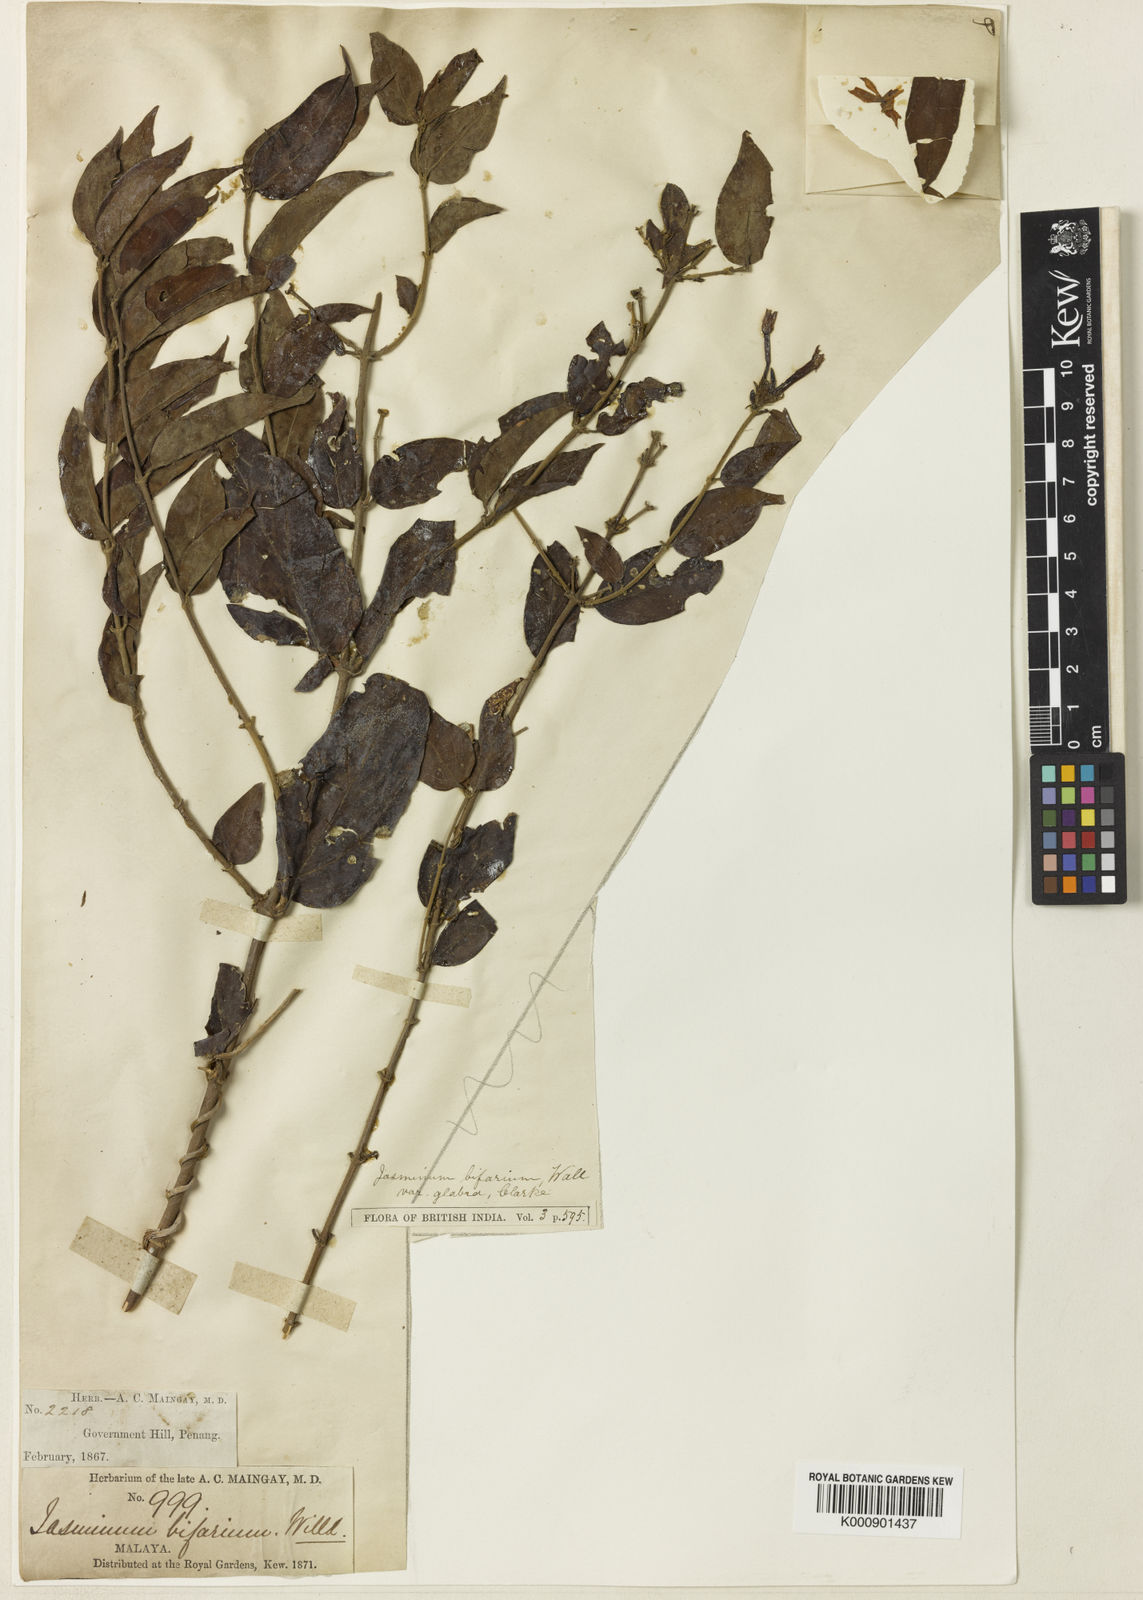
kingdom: Plantae
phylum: Tracheophyta
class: Magnoliopsida
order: Lamiales
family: Oleaceae
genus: Jasminum
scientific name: Jasminum elongatum
